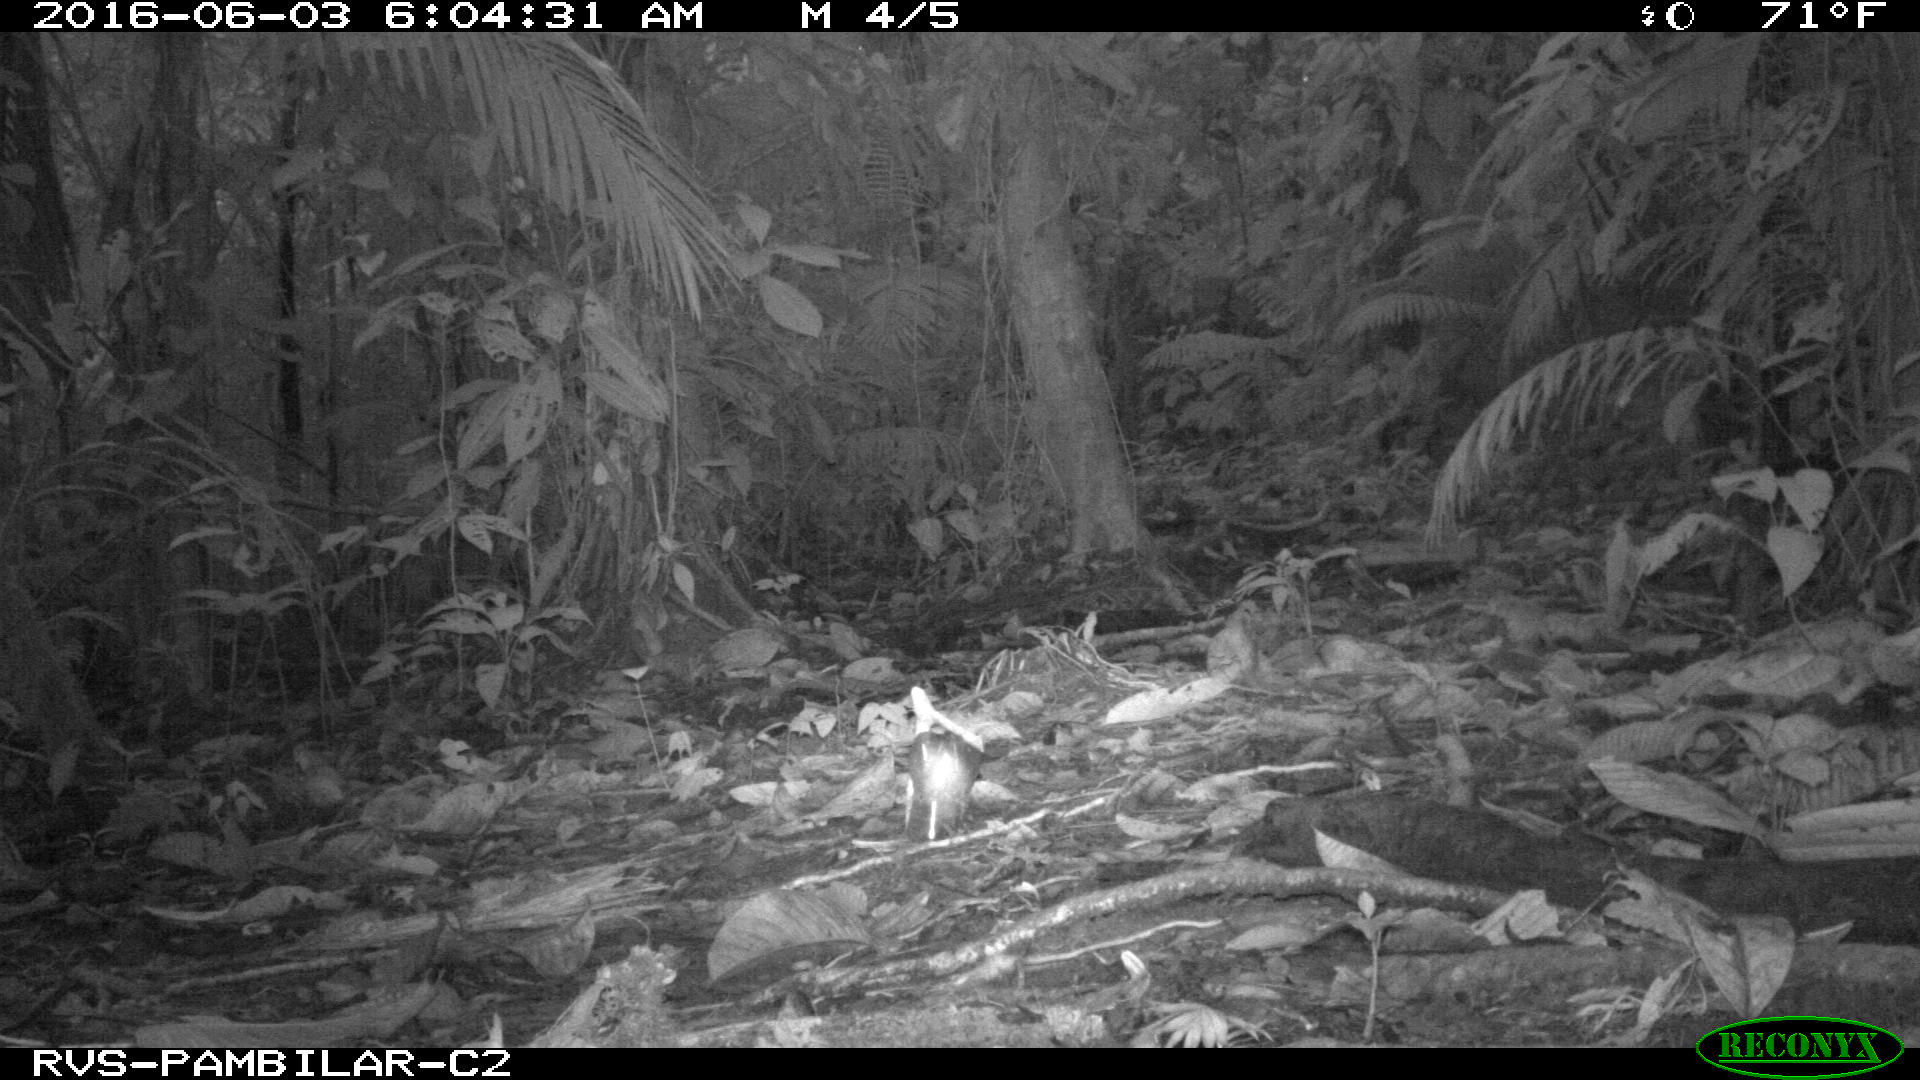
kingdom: Animalia
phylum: Chordata
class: Aves
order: Columbiformes
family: Columbidae
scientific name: Columbidae
